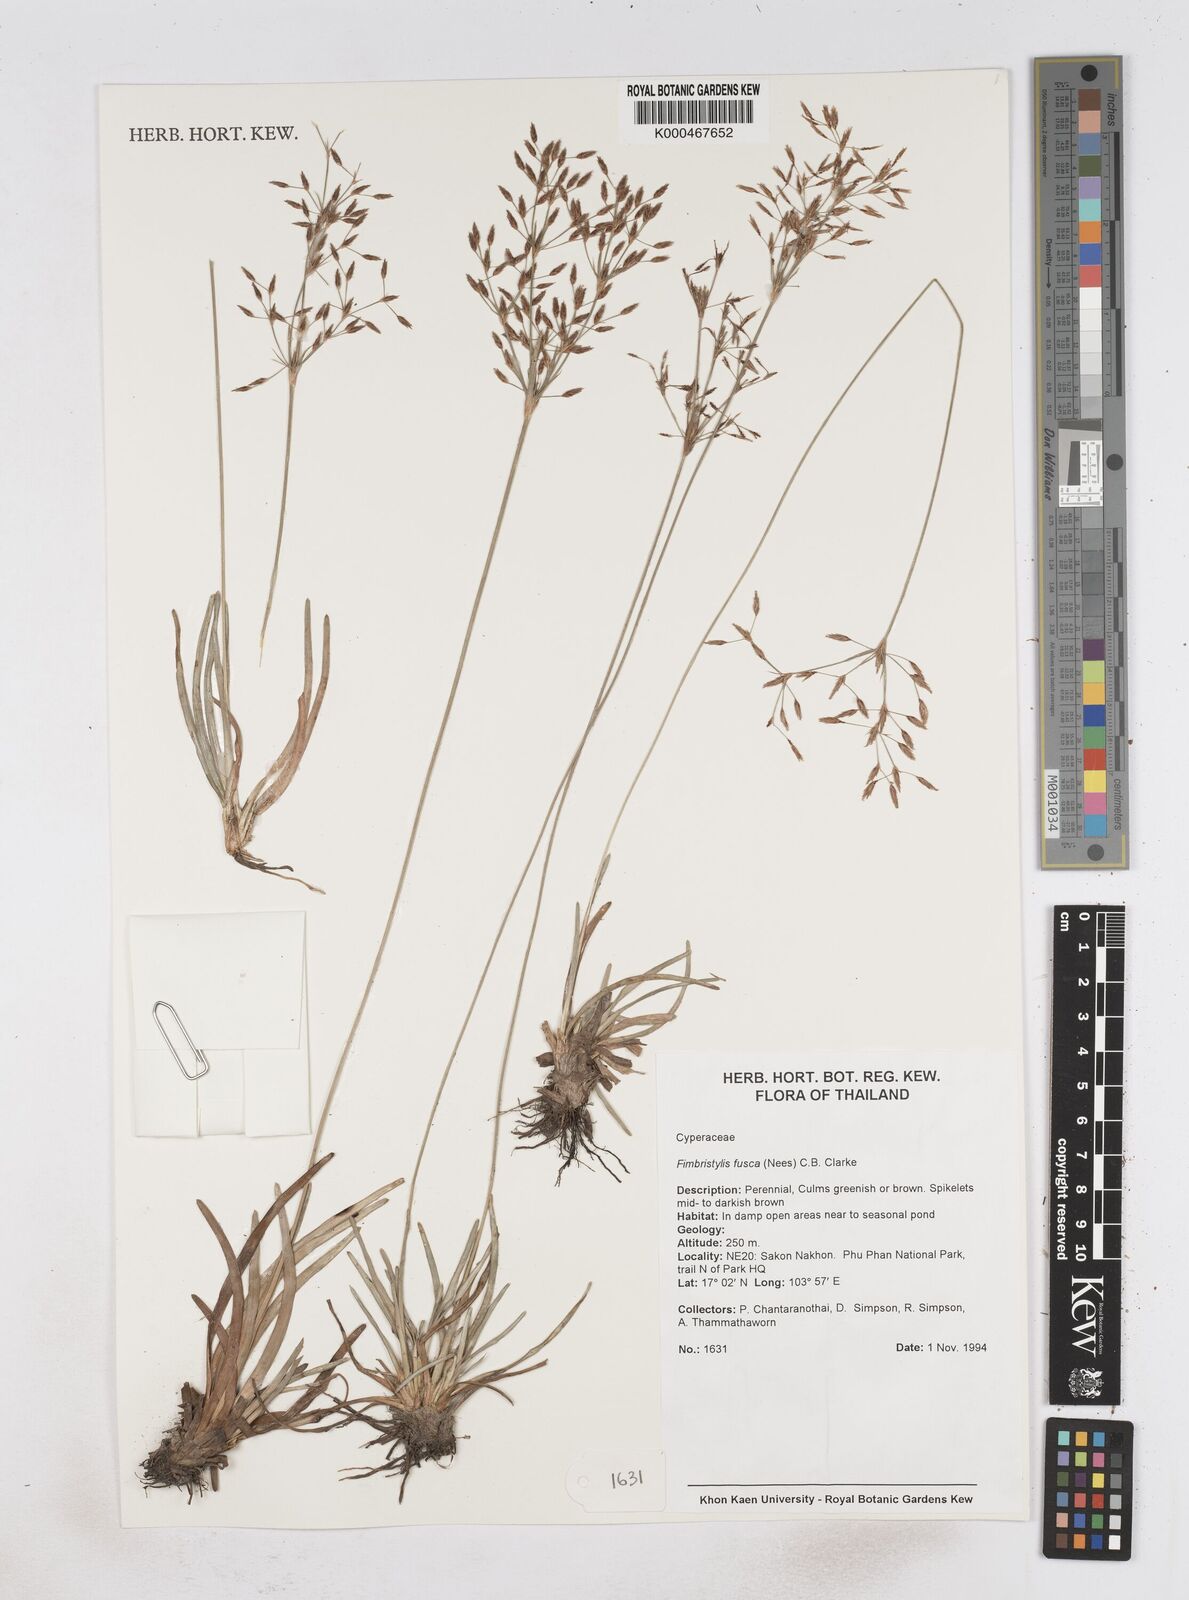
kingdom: Plantae
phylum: Tracheophyta
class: Liliopsida
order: Poales
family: Cyperaceae
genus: Fimbristylis
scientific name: Fimbristylis fusca
